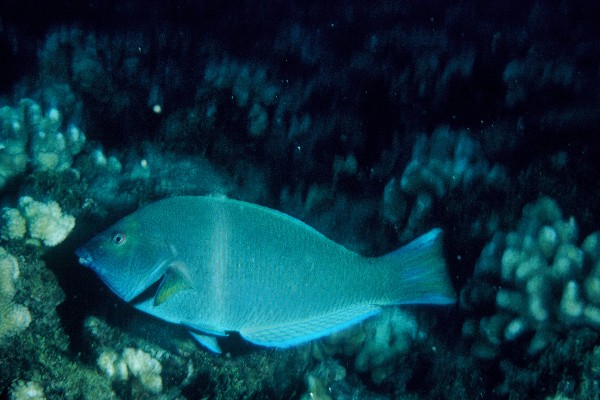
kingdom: Animalia
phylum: Chordata
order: Perciformes
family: Labridae
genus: Anampses
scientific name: Anampses cuvier
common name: Pearl wrasse
